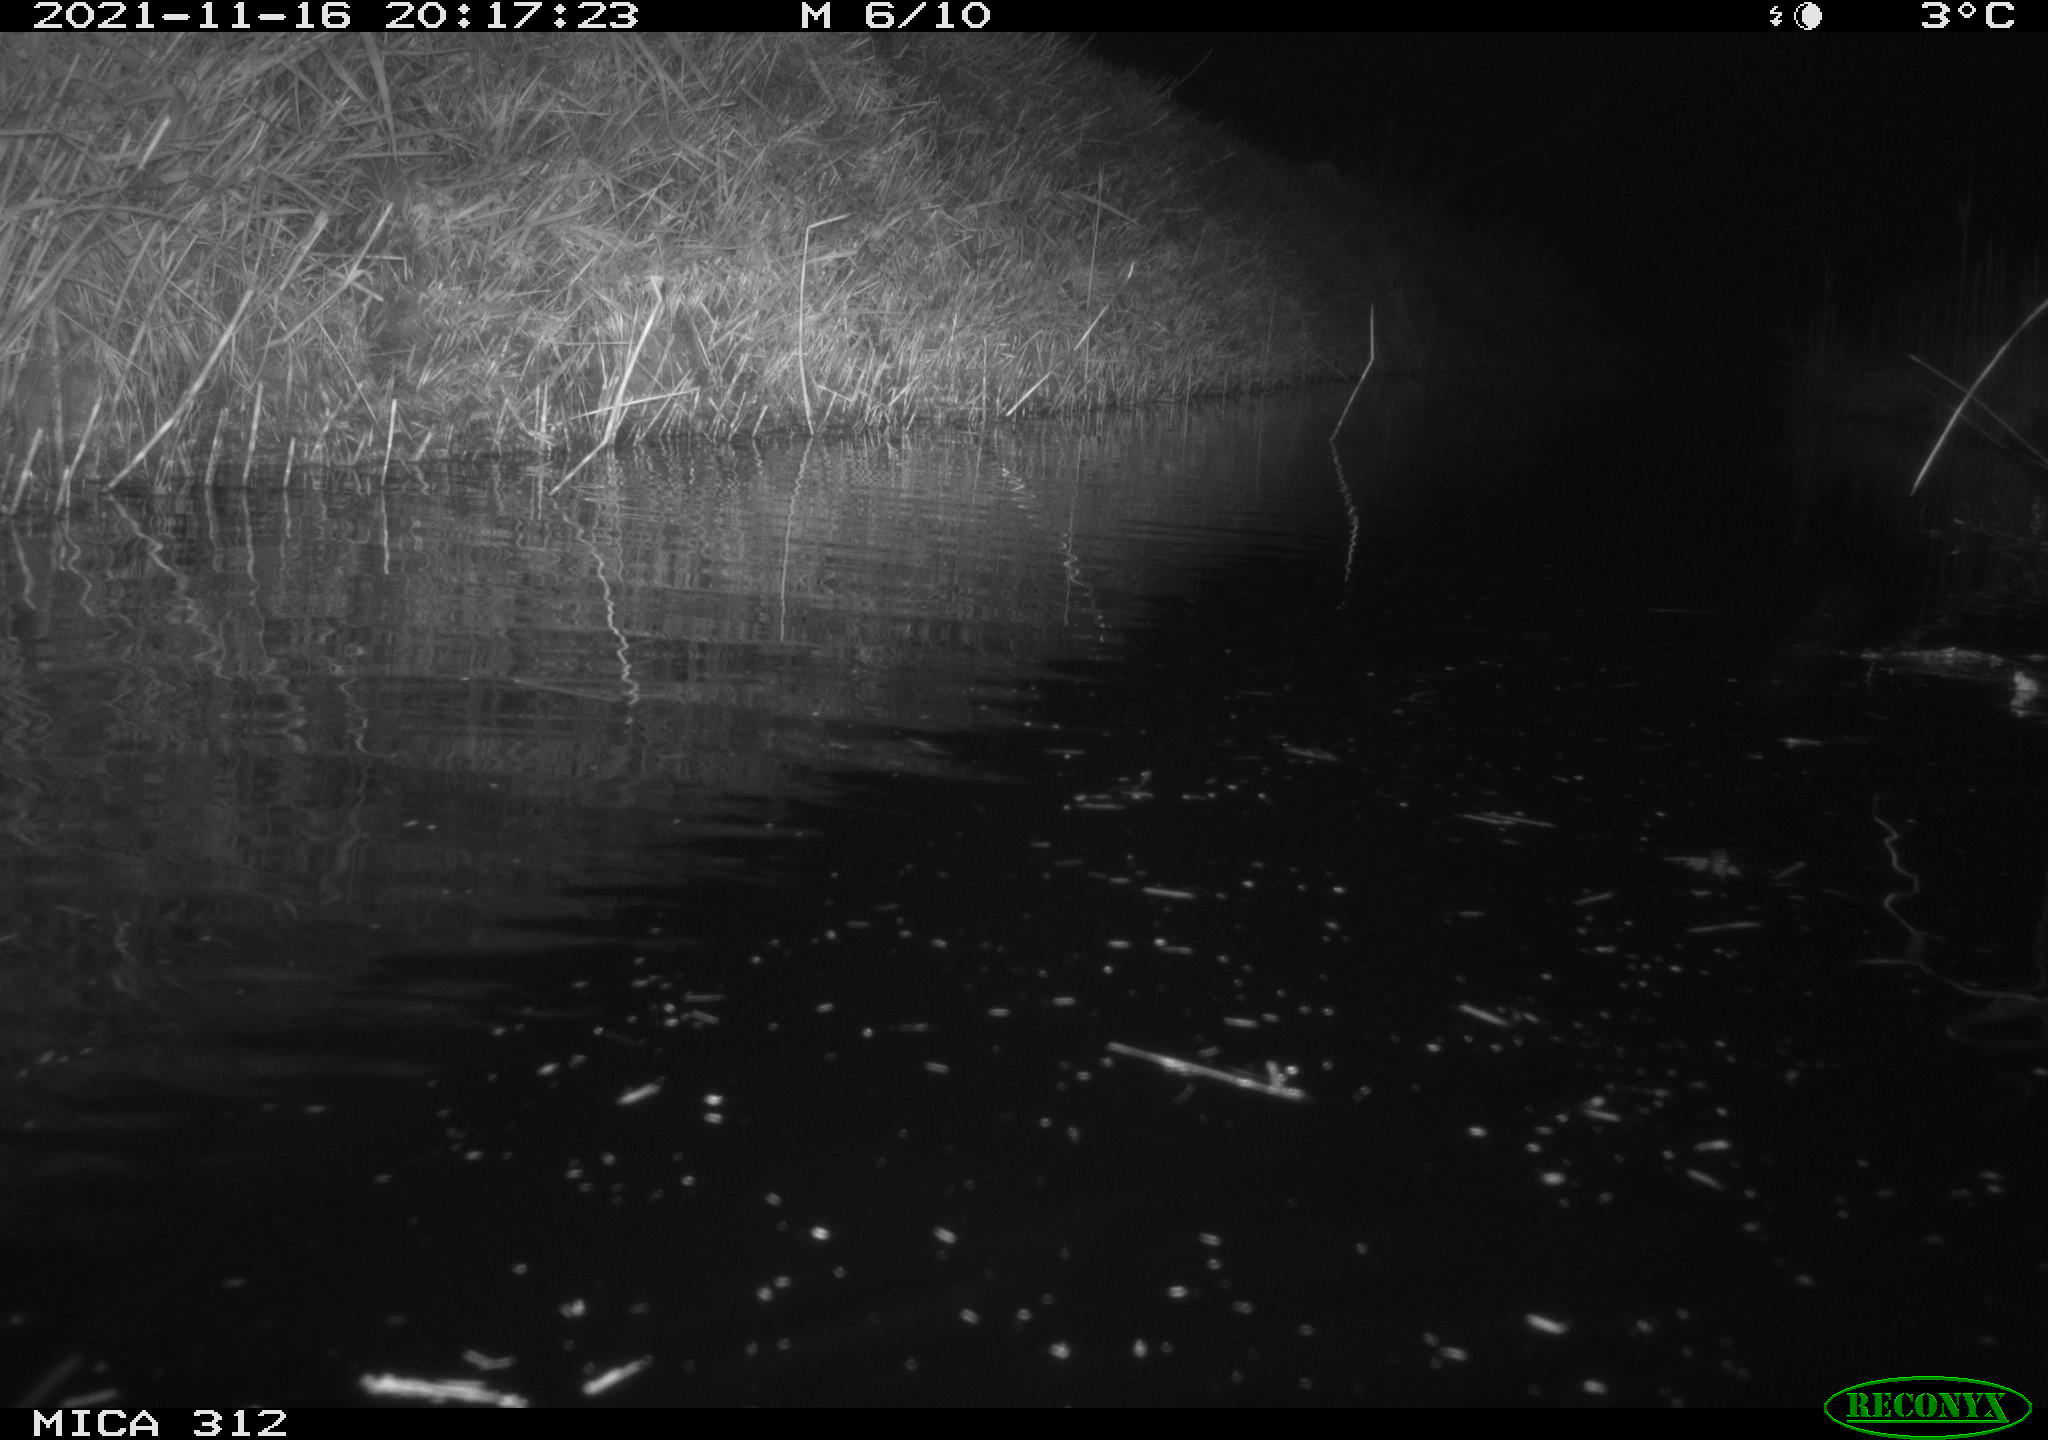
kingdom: Animalia
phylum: Chordata
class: Mammalia
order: Rodentia
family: Muridae
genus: Rattus
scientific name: Rattus norvegicus
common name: Brown rat
